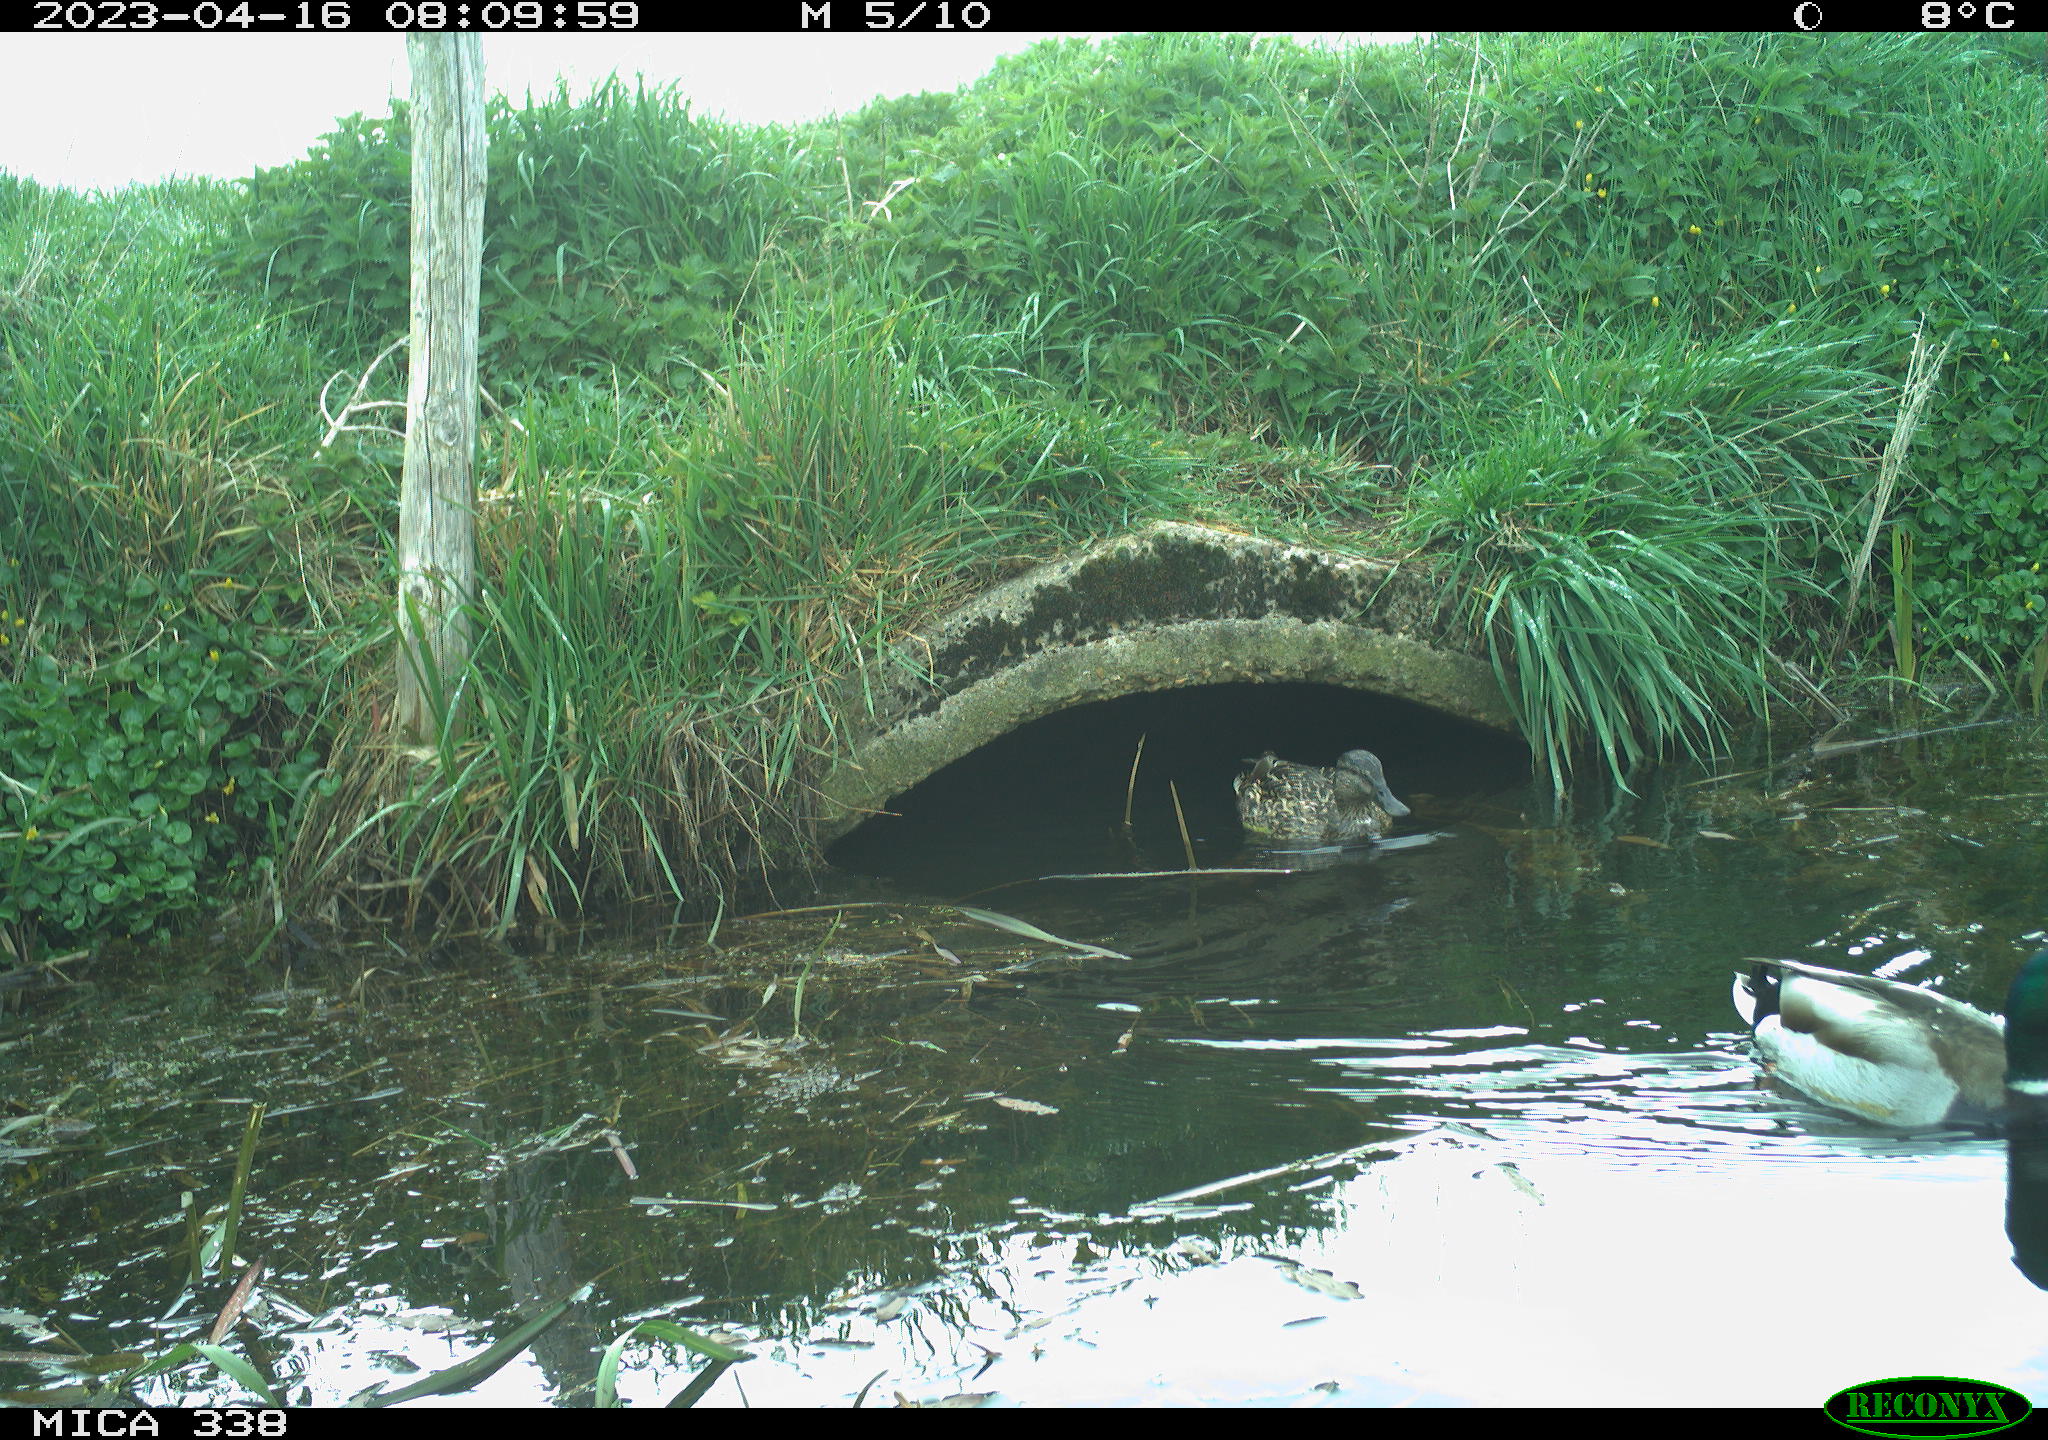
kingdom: Animalia
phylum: Chordata
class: Aves
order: Anseriformes
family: Anatidae
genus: Anas
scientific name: Anas platyrhynchos
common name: Mallard
